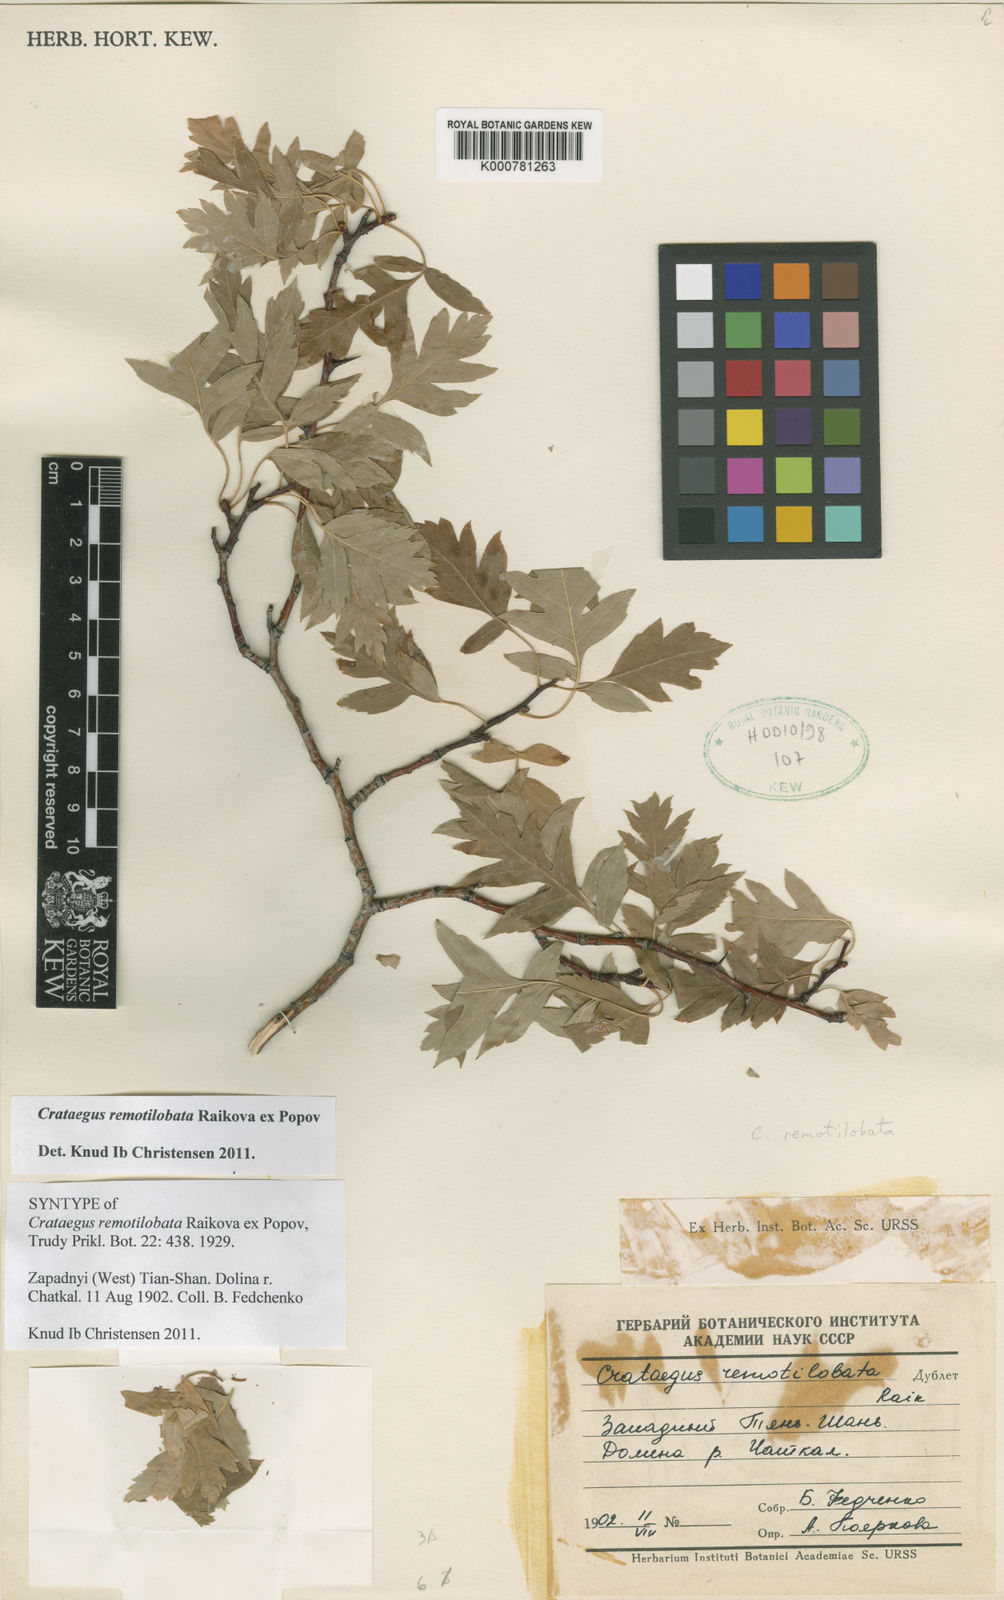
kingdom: Plantae
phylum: Tracheophyta
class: Magnoliopsida
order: Rosales
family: Rosaceae
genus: Crataegus
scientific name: Crataegus remotilobata
